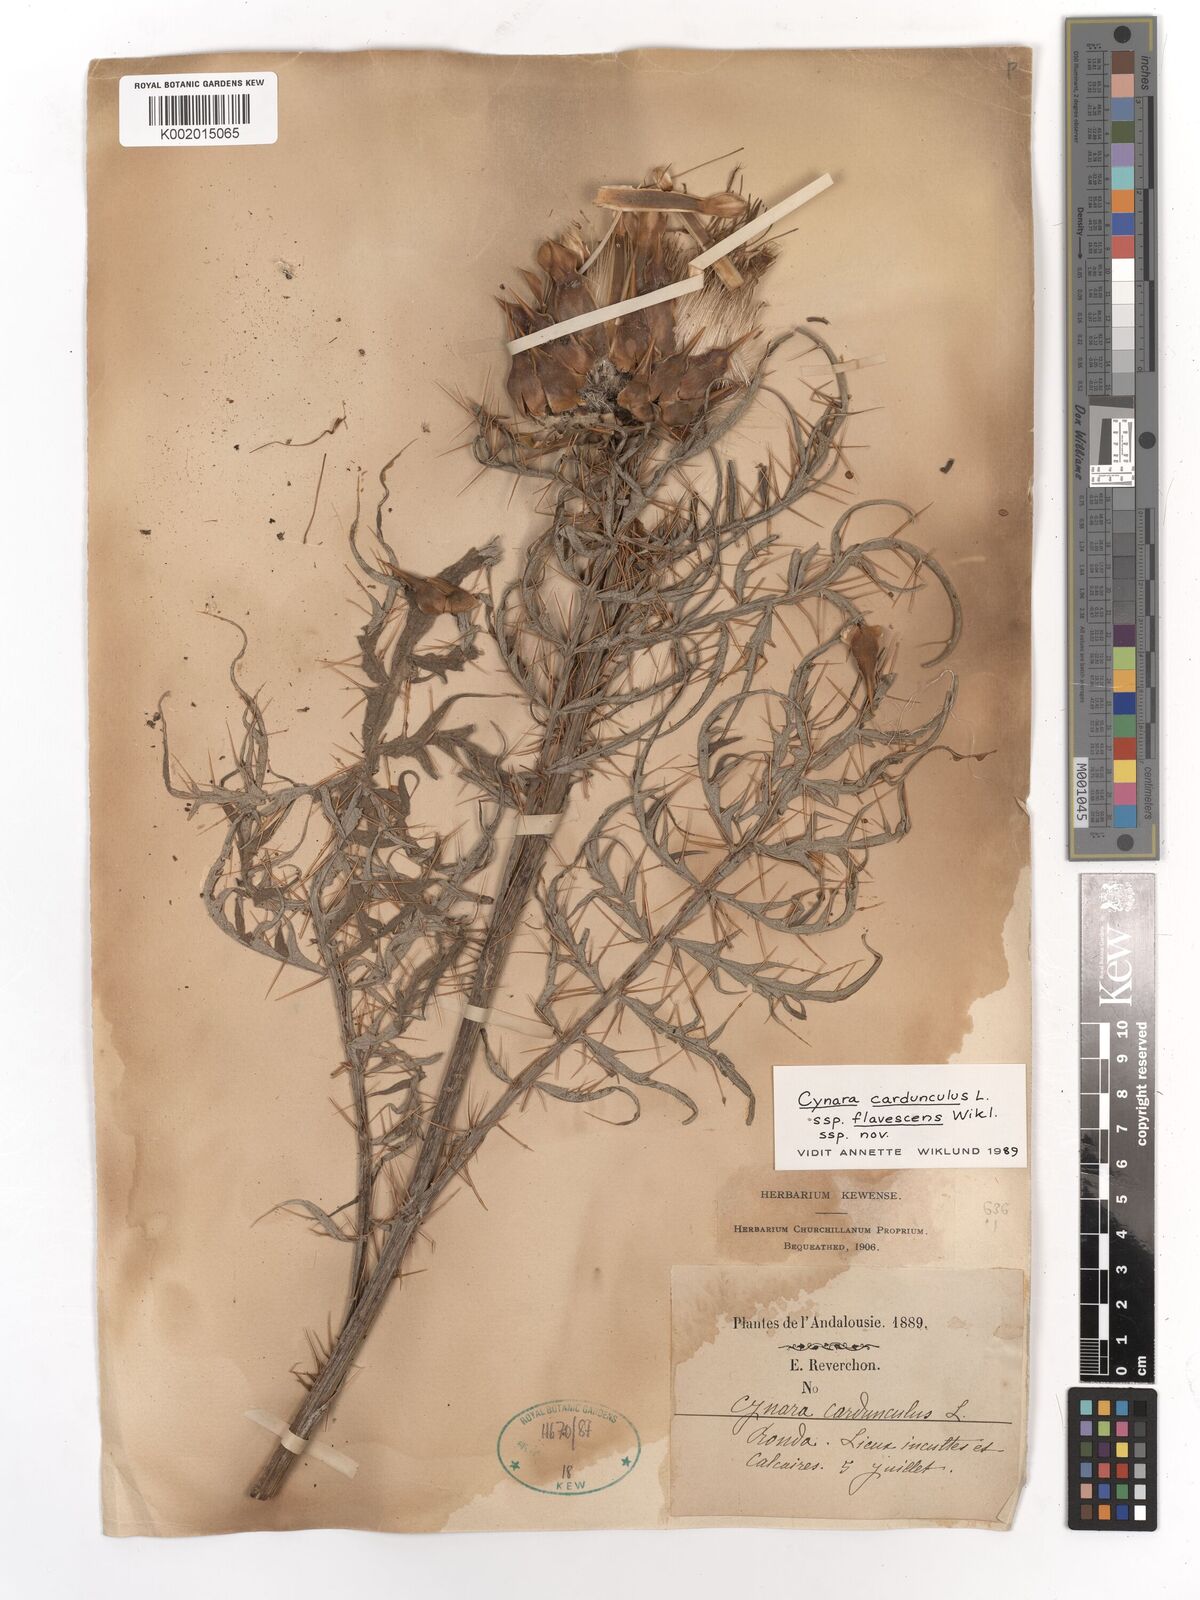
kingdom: Plantae
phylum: Tracheophyta
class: Magnoliopsida
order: Asterales
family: Asteraceae
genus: Cynara
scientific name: Cynara cardunculus
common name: Globe artichoke
